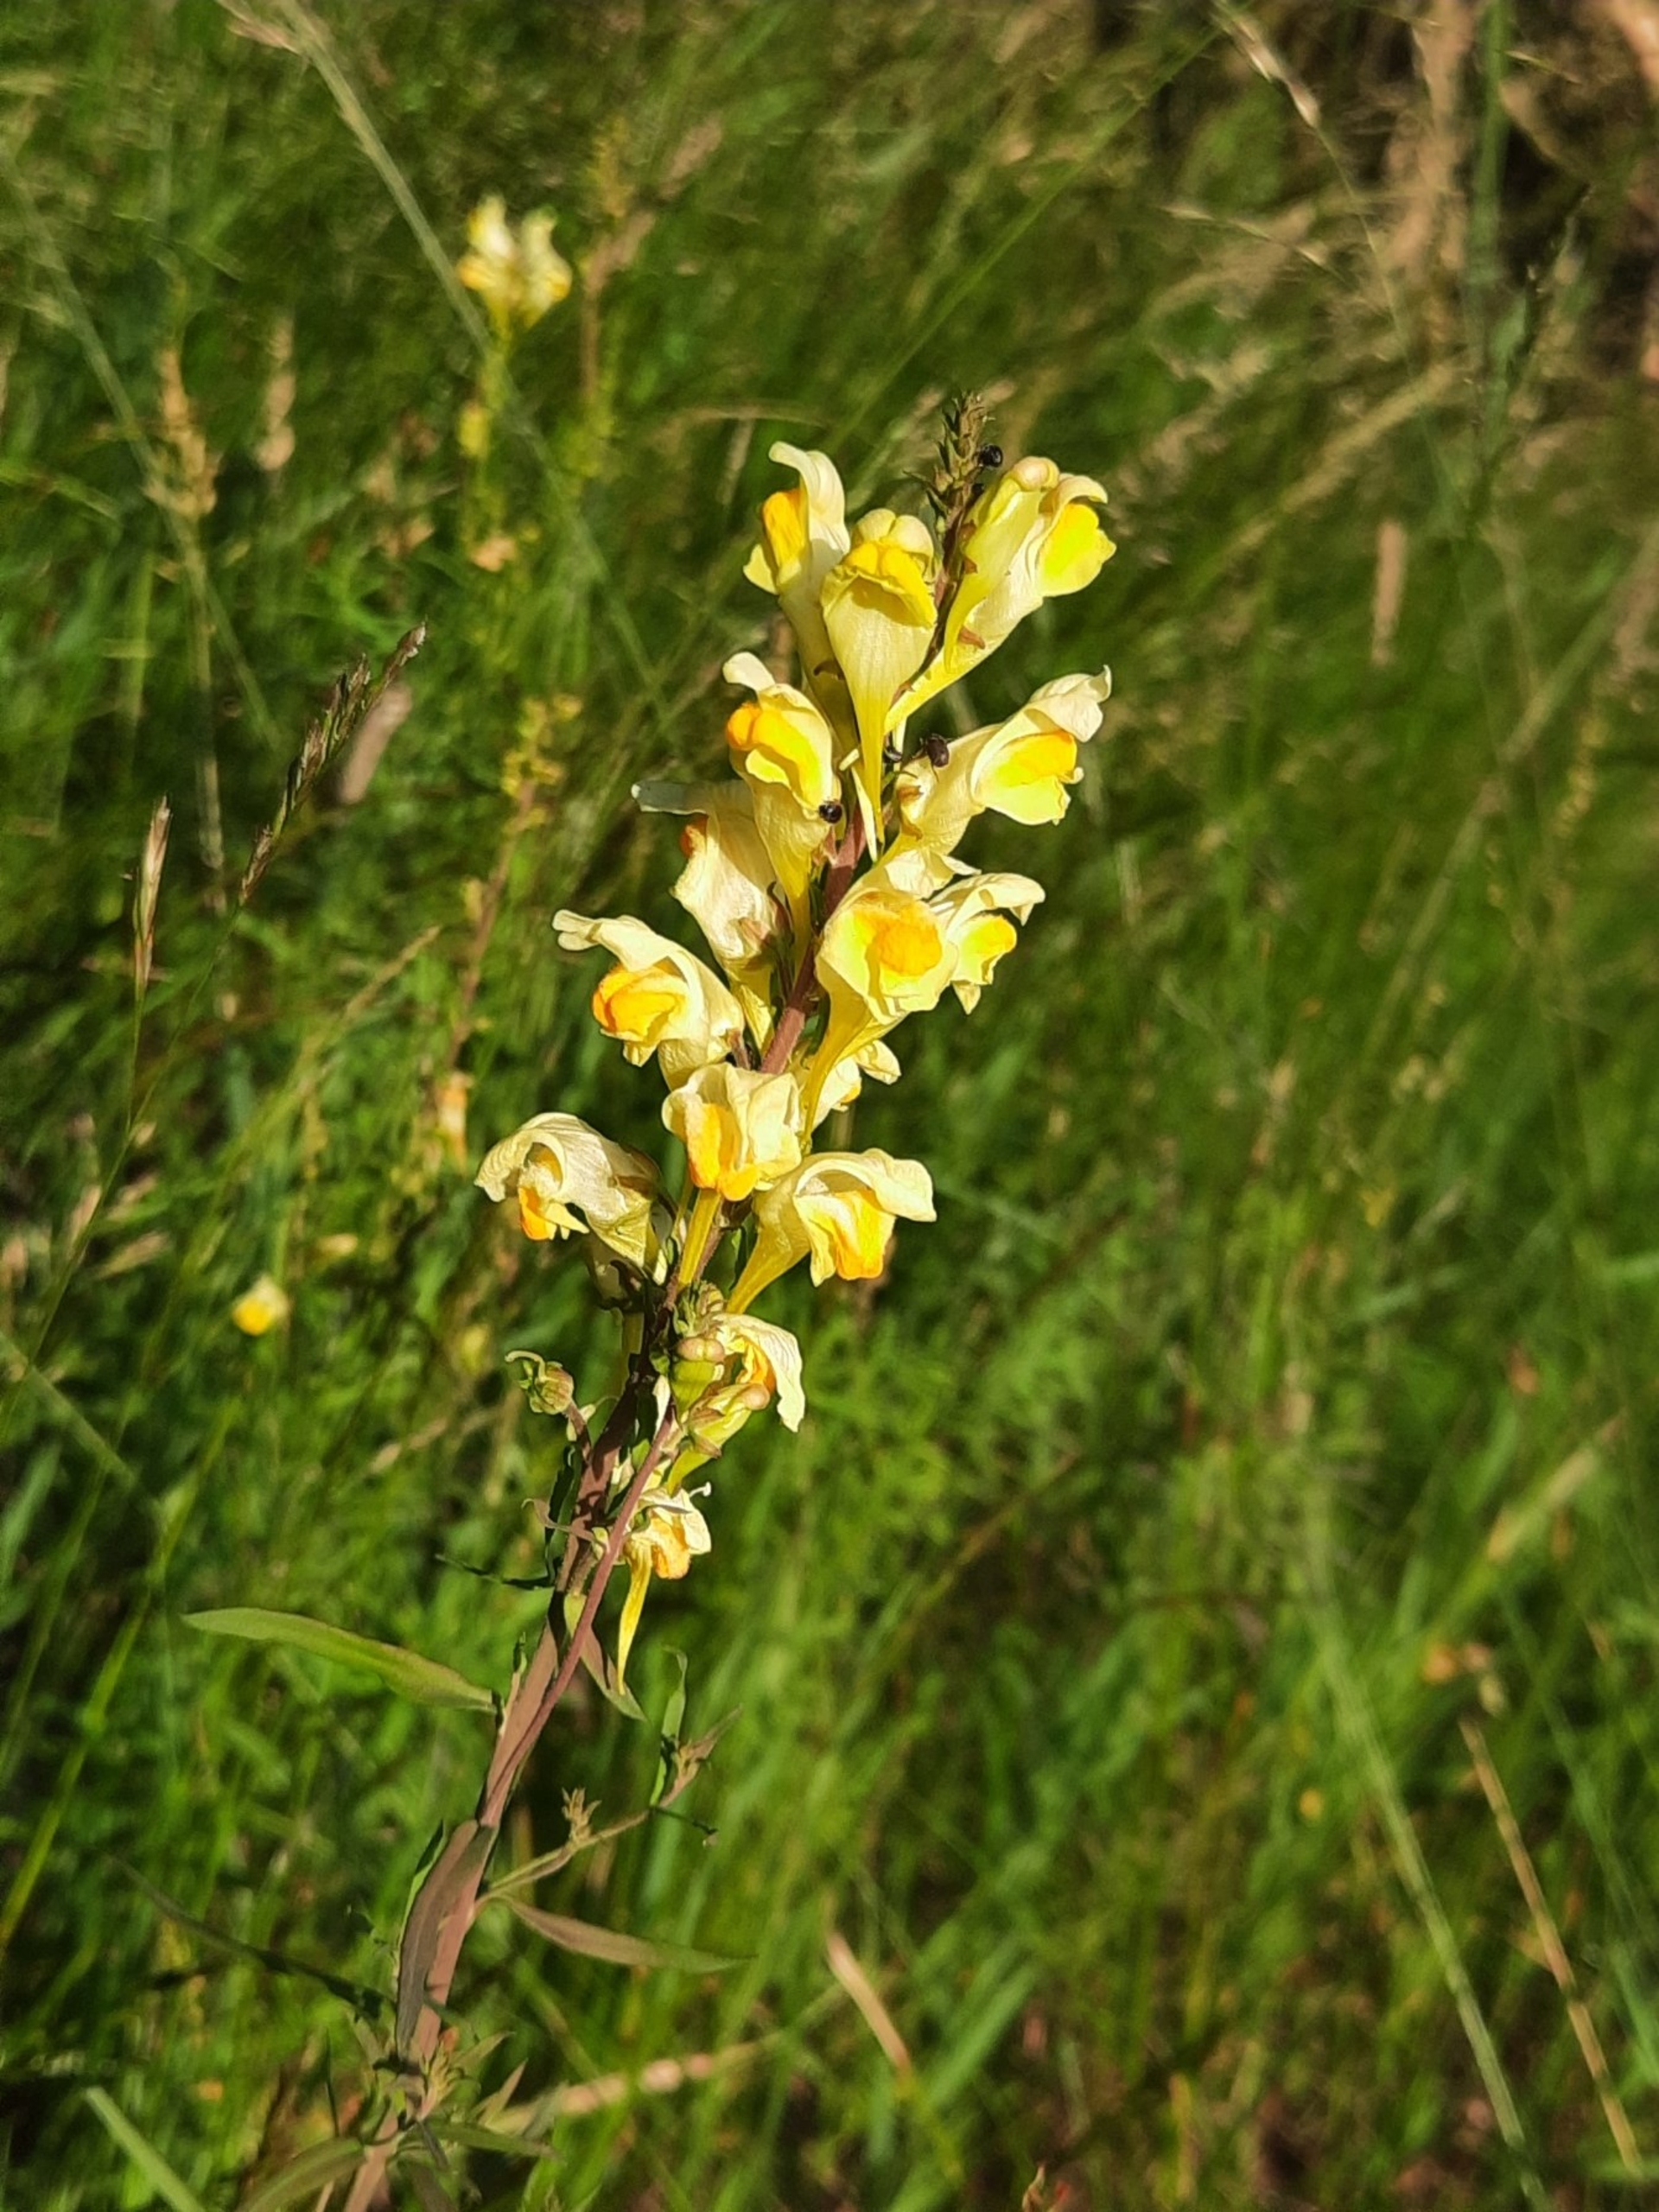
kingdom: Plantae
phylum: Tracheophyta
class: Magnoliopsida
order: Lamiales
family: Plantaginaceae
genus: Linaria
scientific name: Linaria vulgaris
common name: Almindelig torskemund
